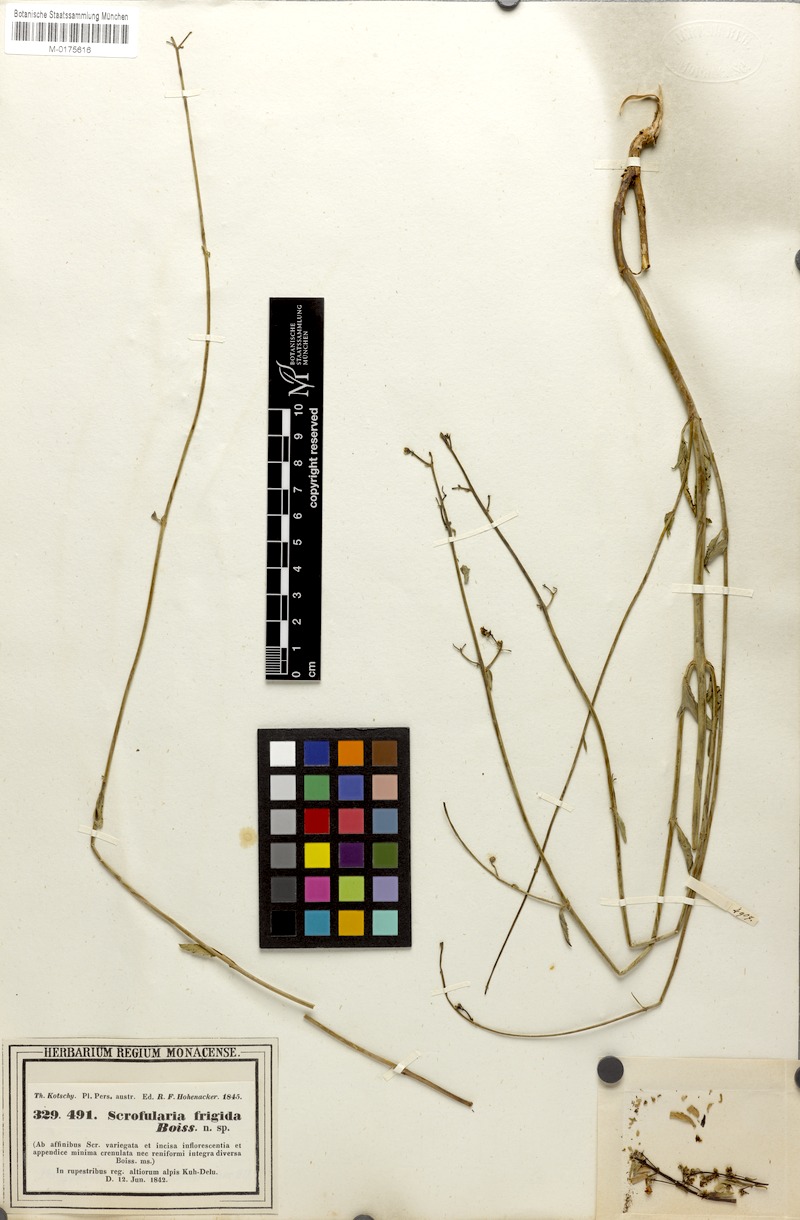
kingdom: Plantae
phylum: Tracheophyta
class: Magnoliopsida
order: Lamiales
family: Scrophulariaceae
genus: Scrophularia
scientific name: Scrophularia frigida
